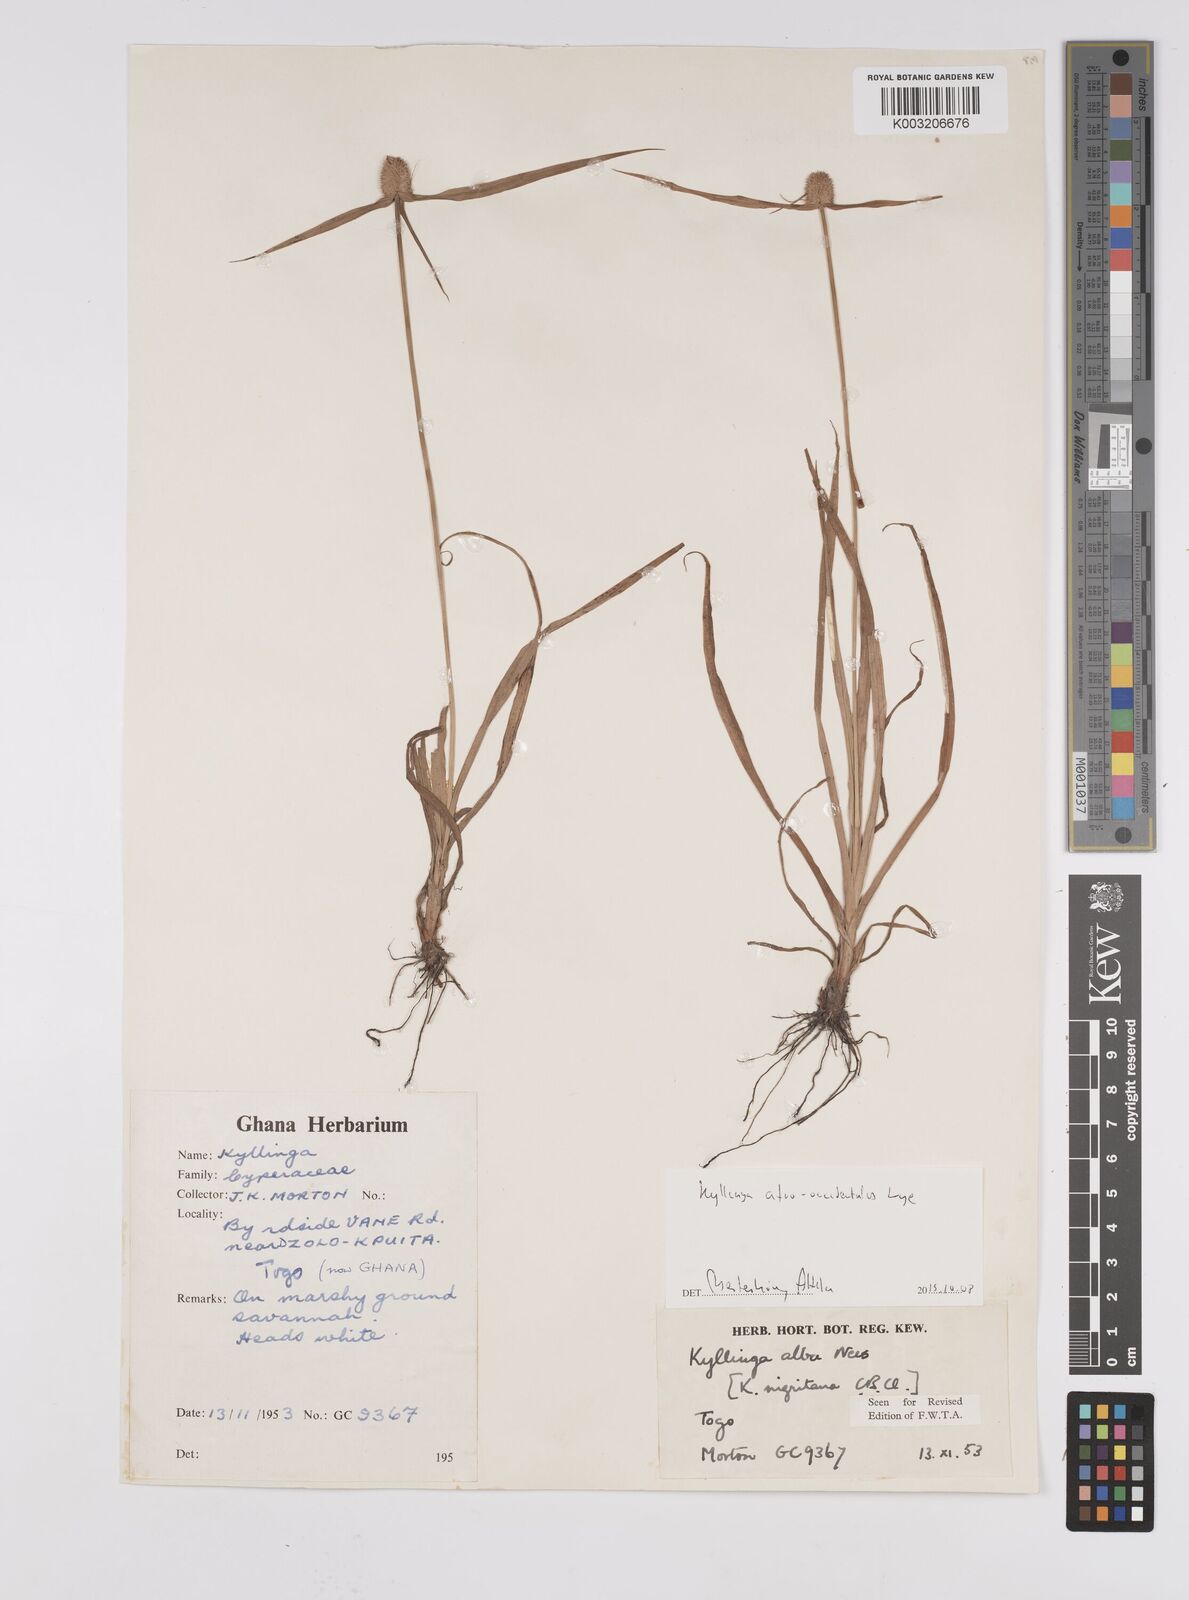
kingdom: Plantae
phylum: Tracheophyta
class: Liliopsida
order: Poales
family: Cyperaceae
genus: Cyperus
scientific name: Cyperus afro-occidentalis
